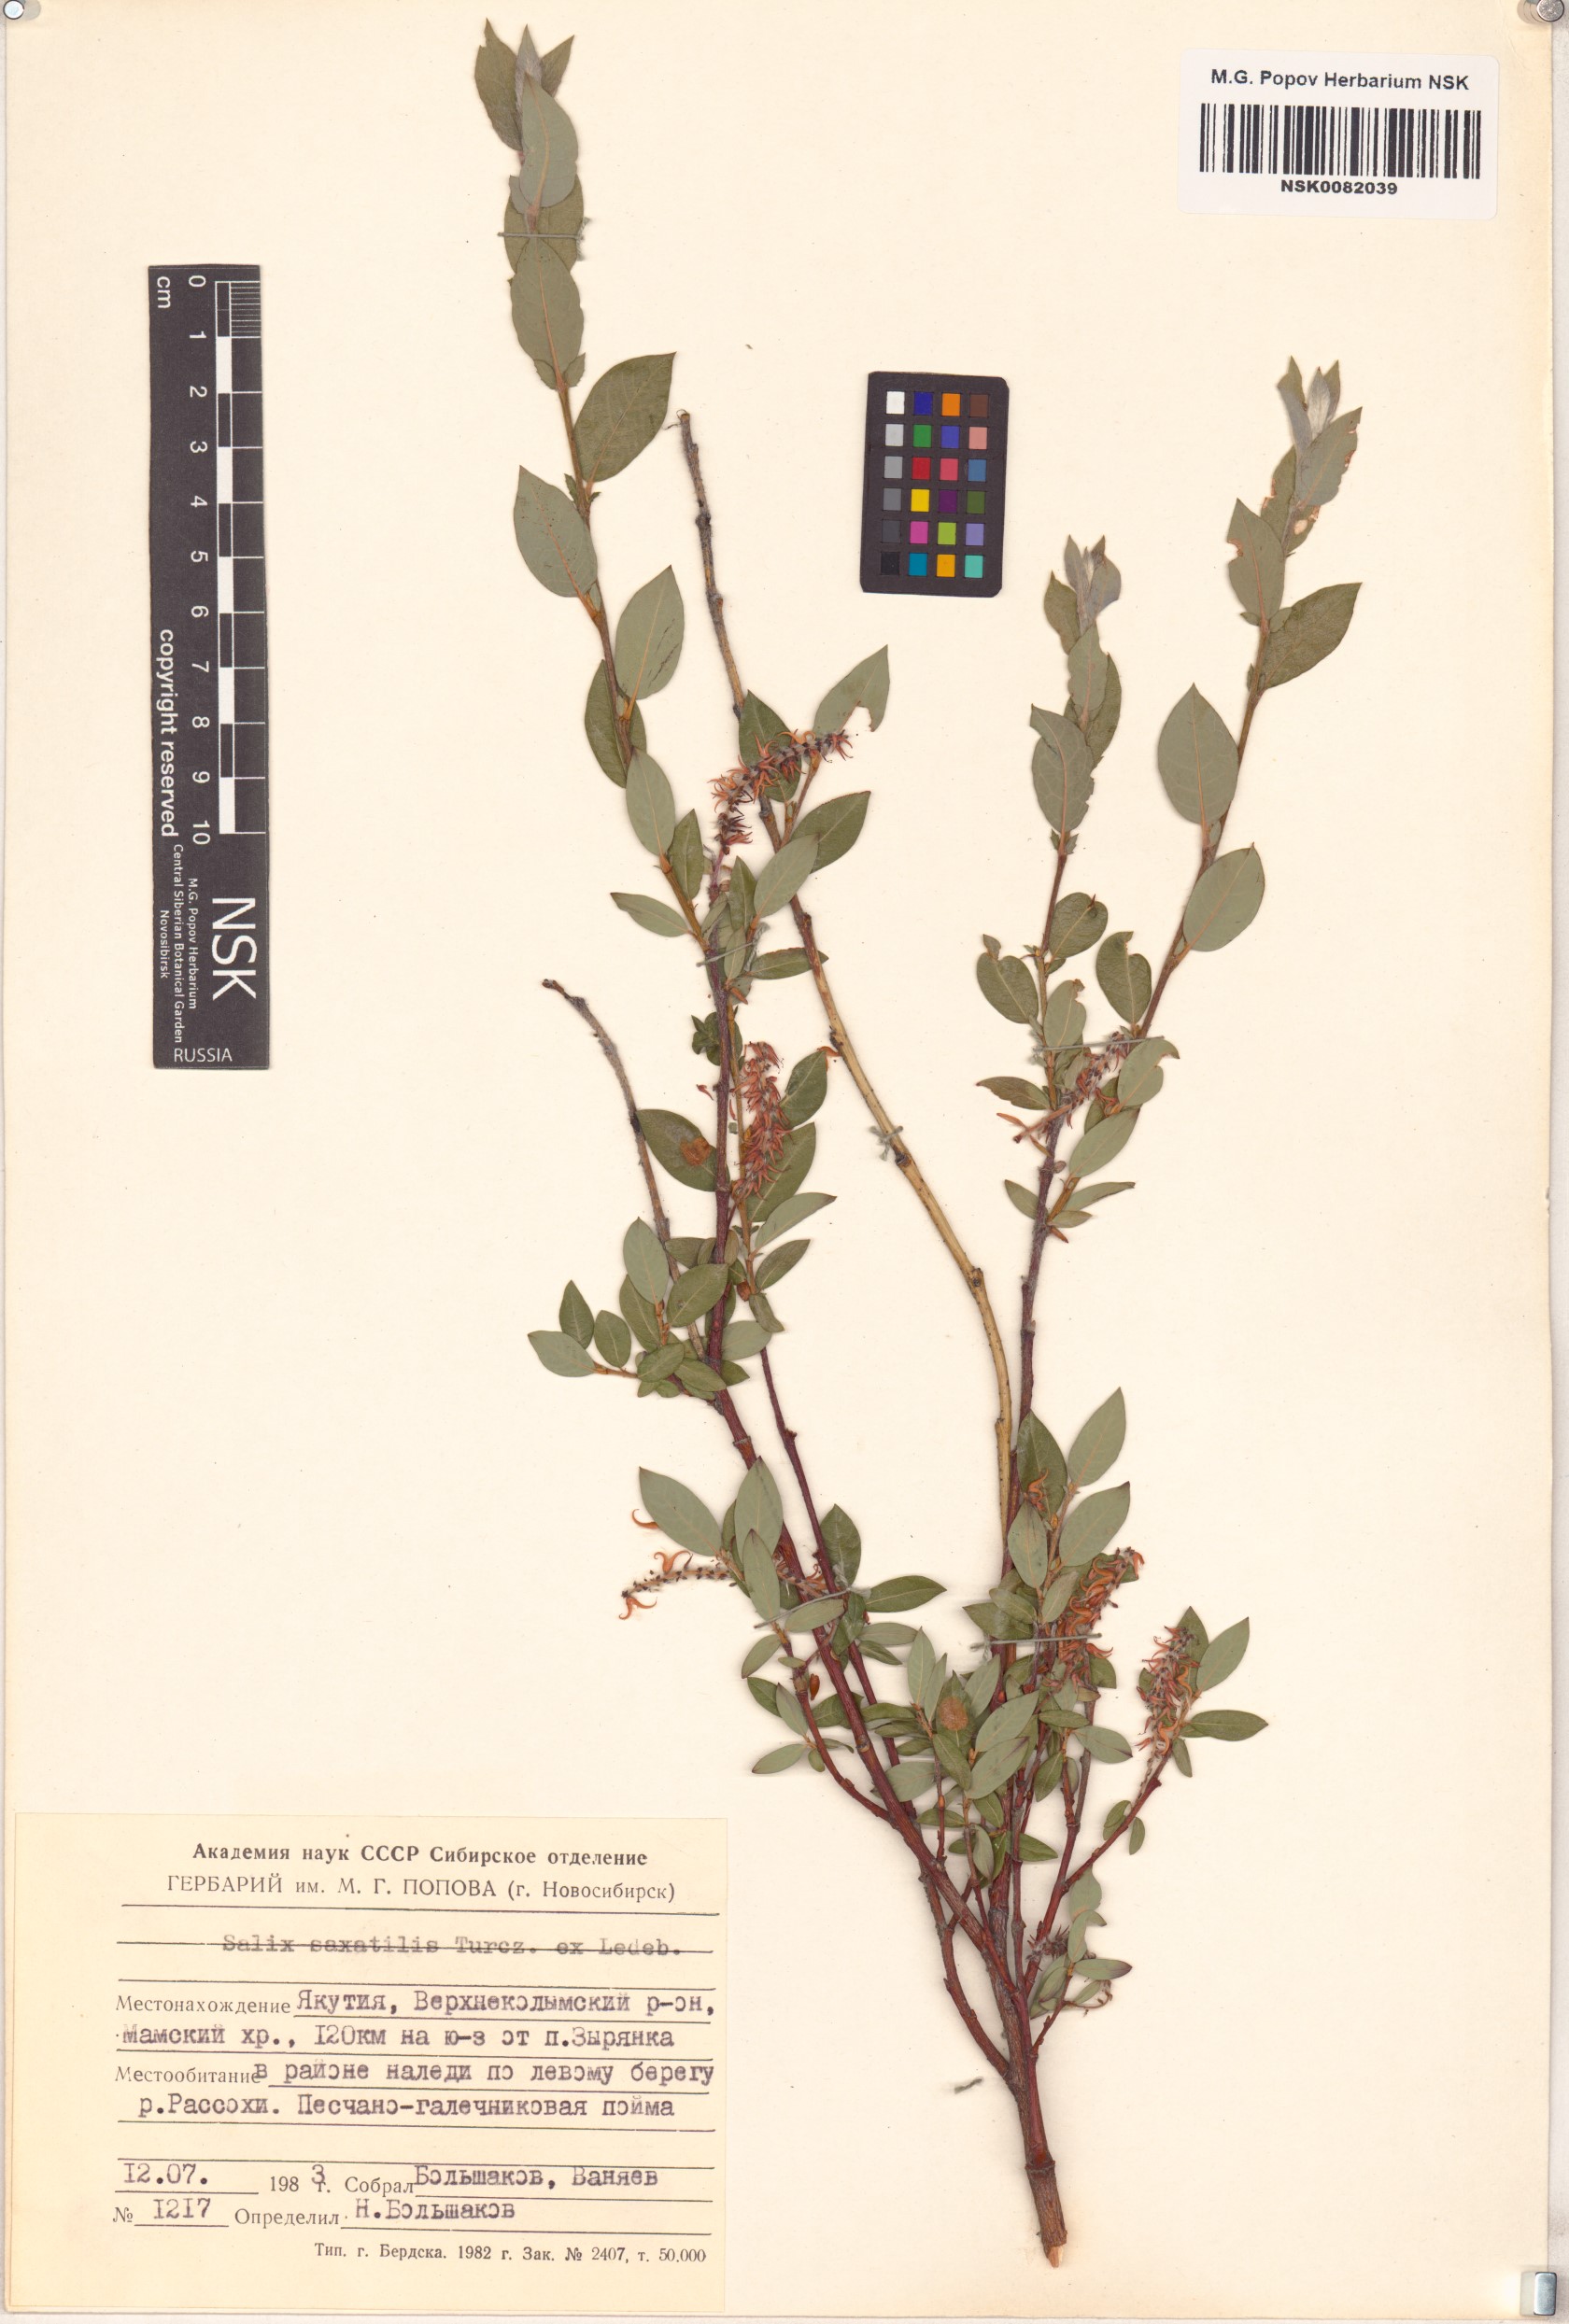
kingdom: Plantae
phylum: Tracheophyta
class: Magnoliopsida
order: Malpighiales
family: Salicaceae
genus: Salix
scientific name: Salix saxatilis
